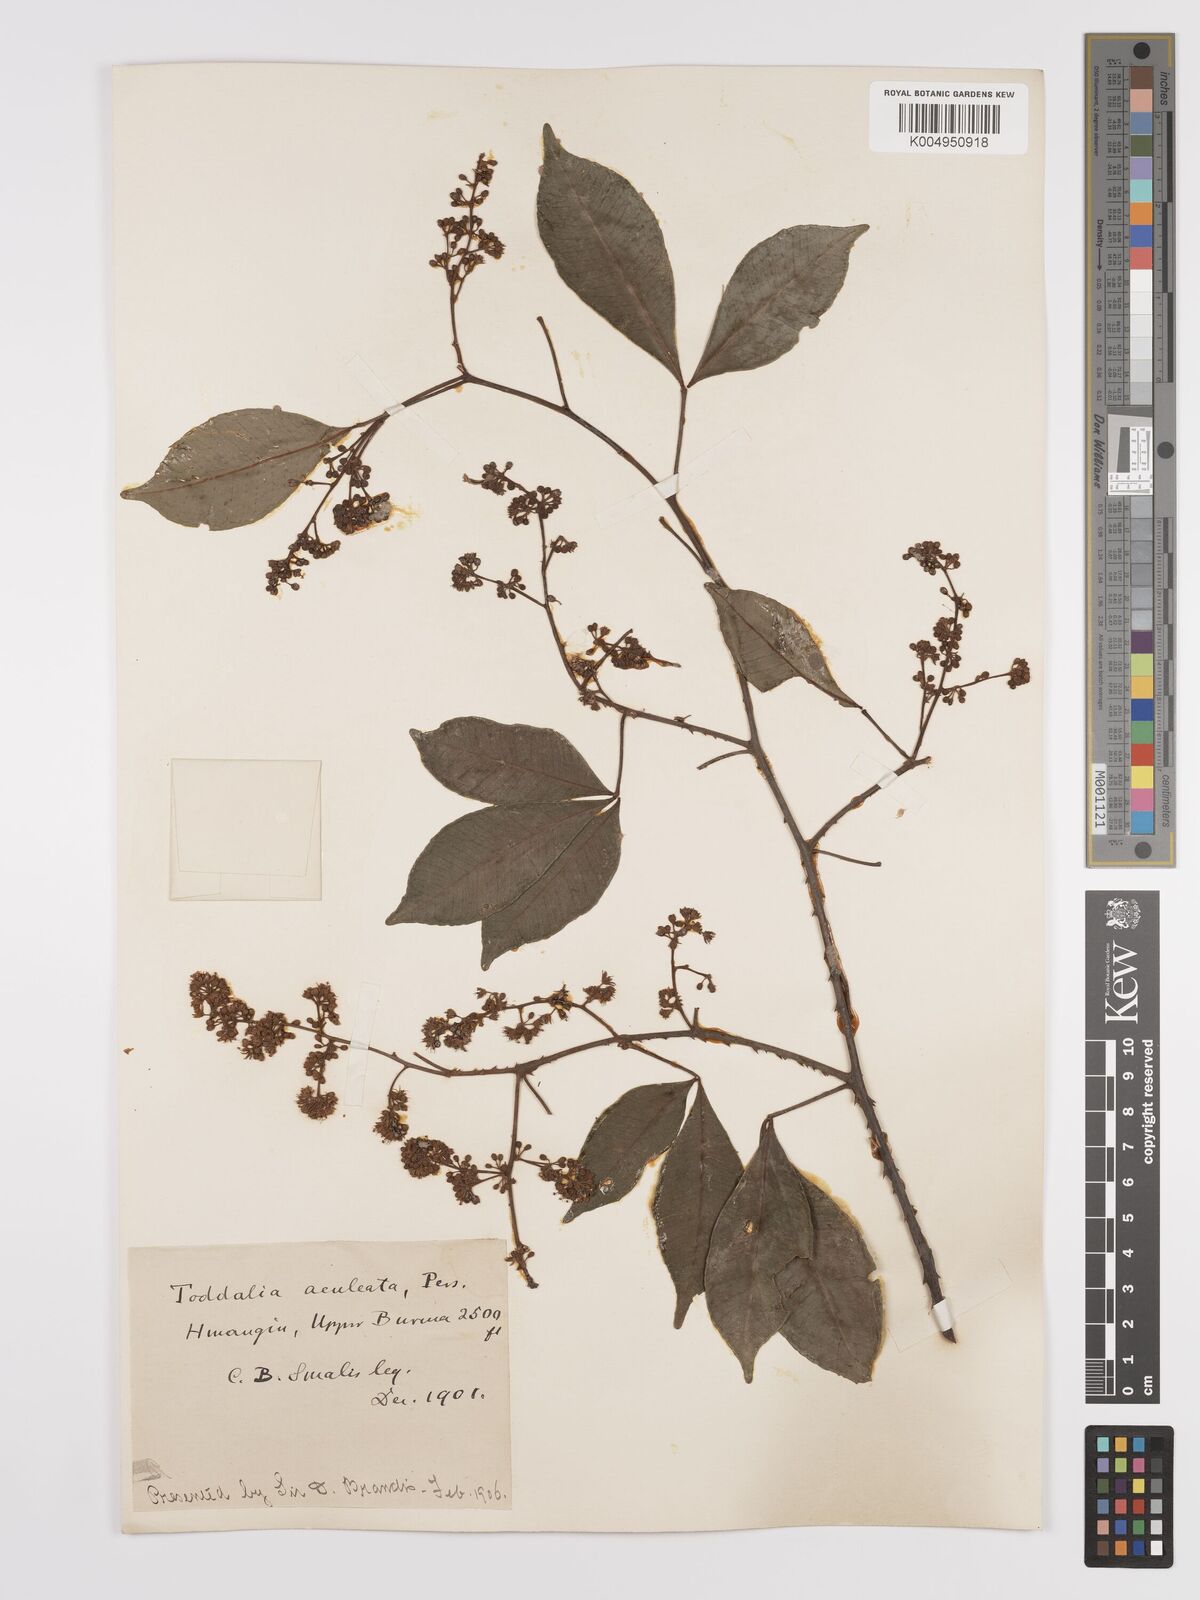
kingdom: Plantae
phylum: Tracheophyta
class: Magnoliopsida
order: Sapindales
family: Rutaceae
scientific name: Rutaceae
